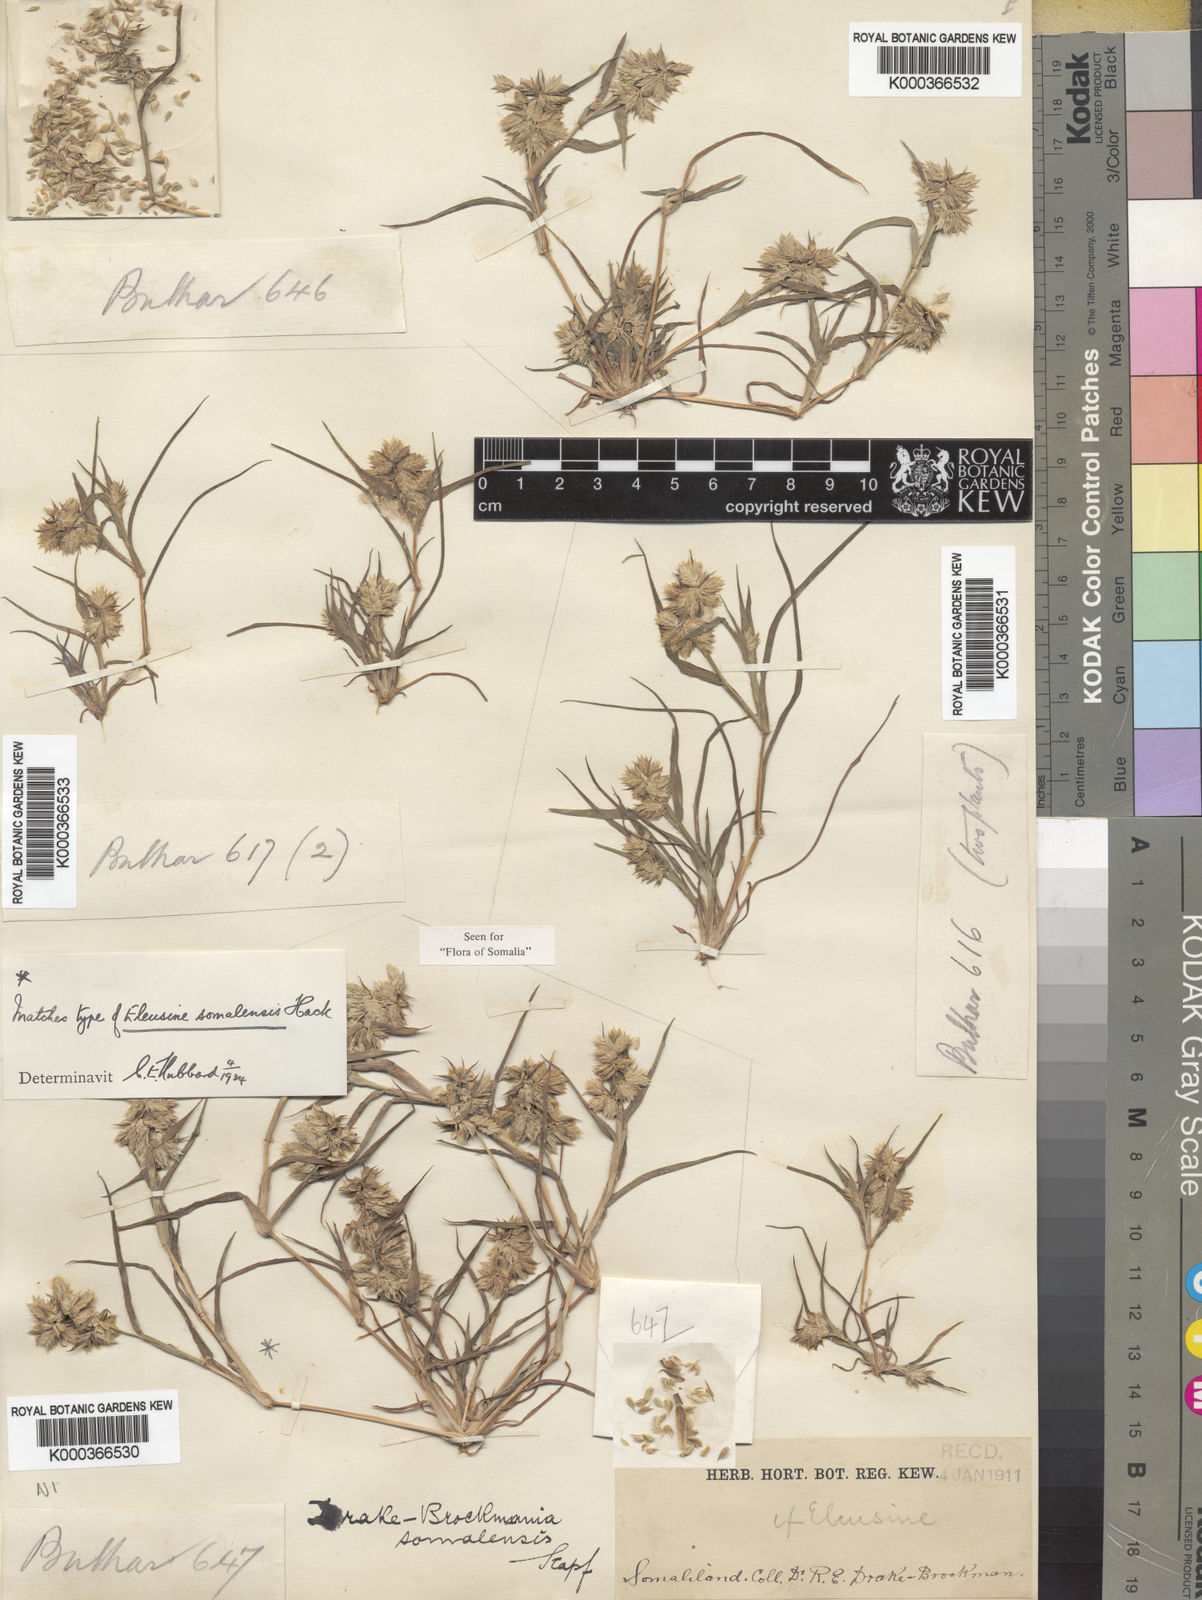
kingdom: Plantae
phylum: Tracheophyta
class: Liliopsida
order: Poales
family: Poaceae
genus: Dinebra
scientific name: Dinebra somalensis
